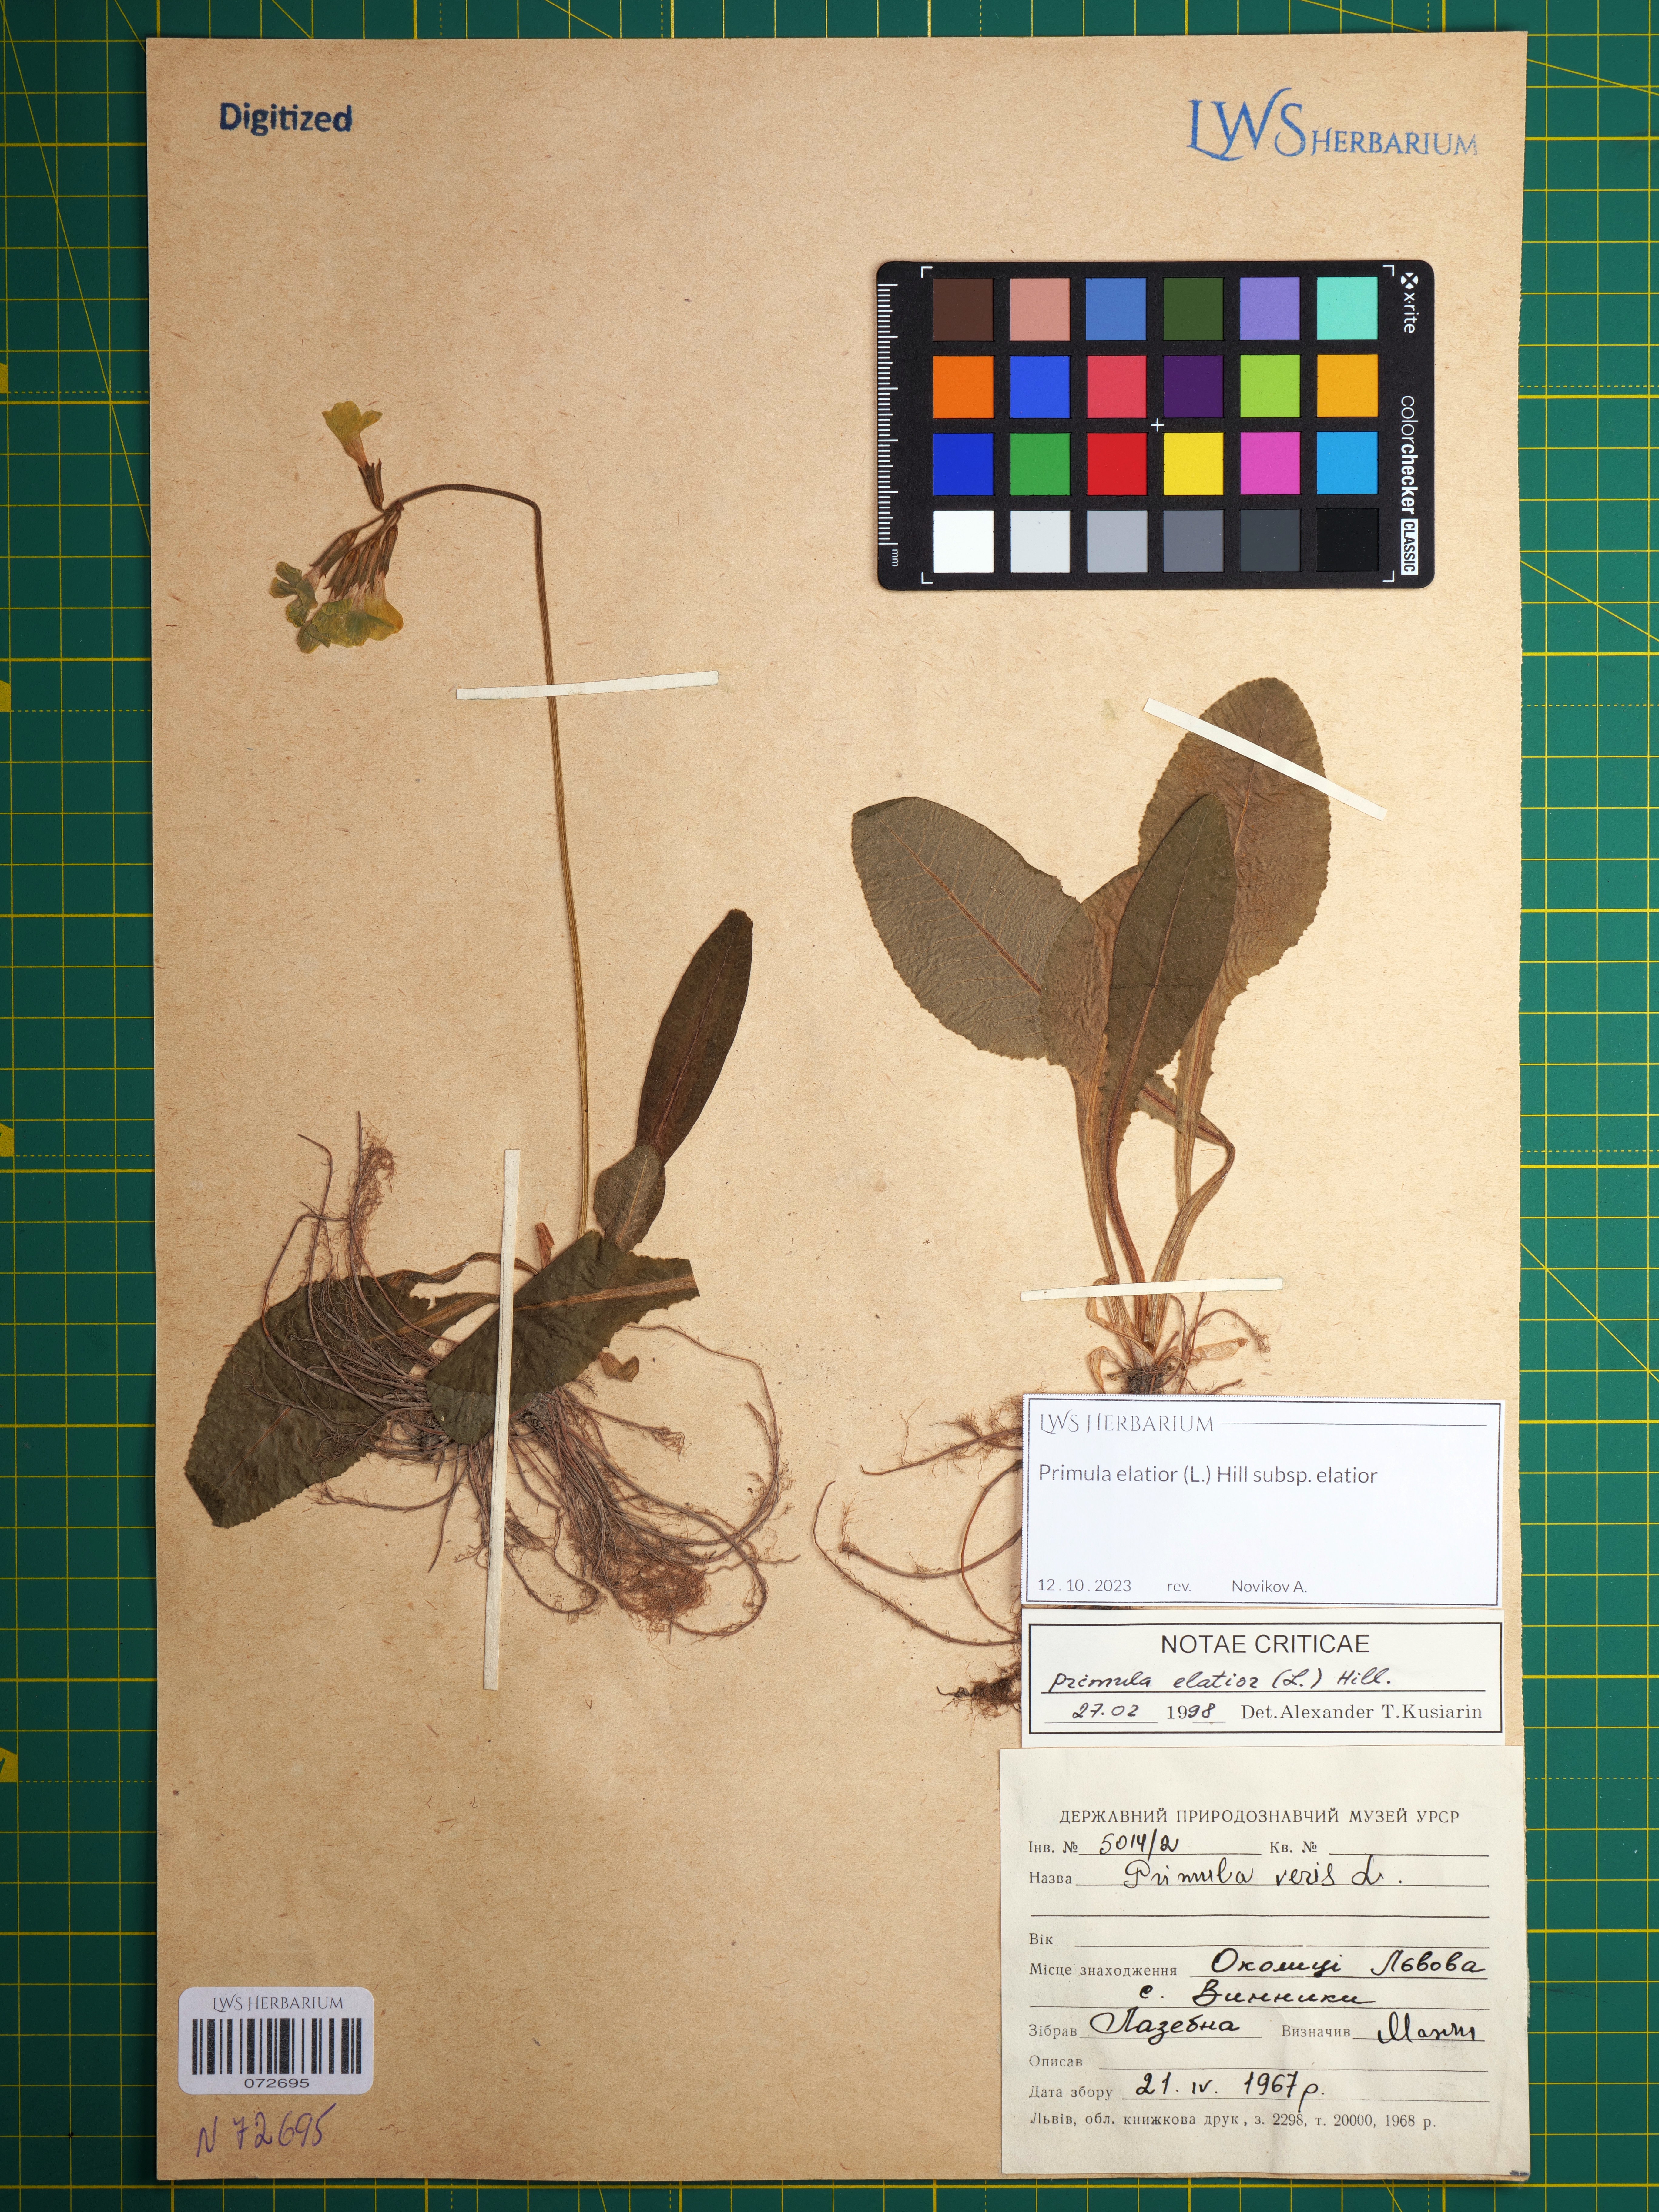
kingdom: Plantae
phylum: Tracheophyta
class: Magnoliopsida
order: Ericales
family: Primulaceae
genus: Primula
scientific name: Primula elatior
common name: Oxlip
